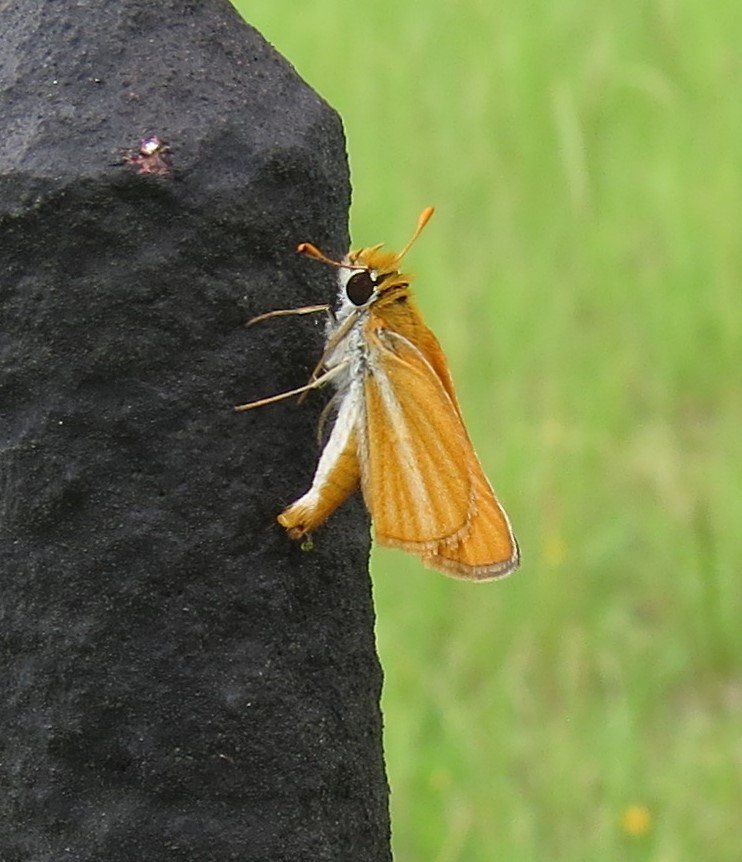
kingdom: Animalia
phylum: Arthropoda
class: Insecta
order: Lepidoptera
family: Hesperiidae
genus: Copaeodes
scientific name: Copaeodes minima
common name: Southern Skipperling
